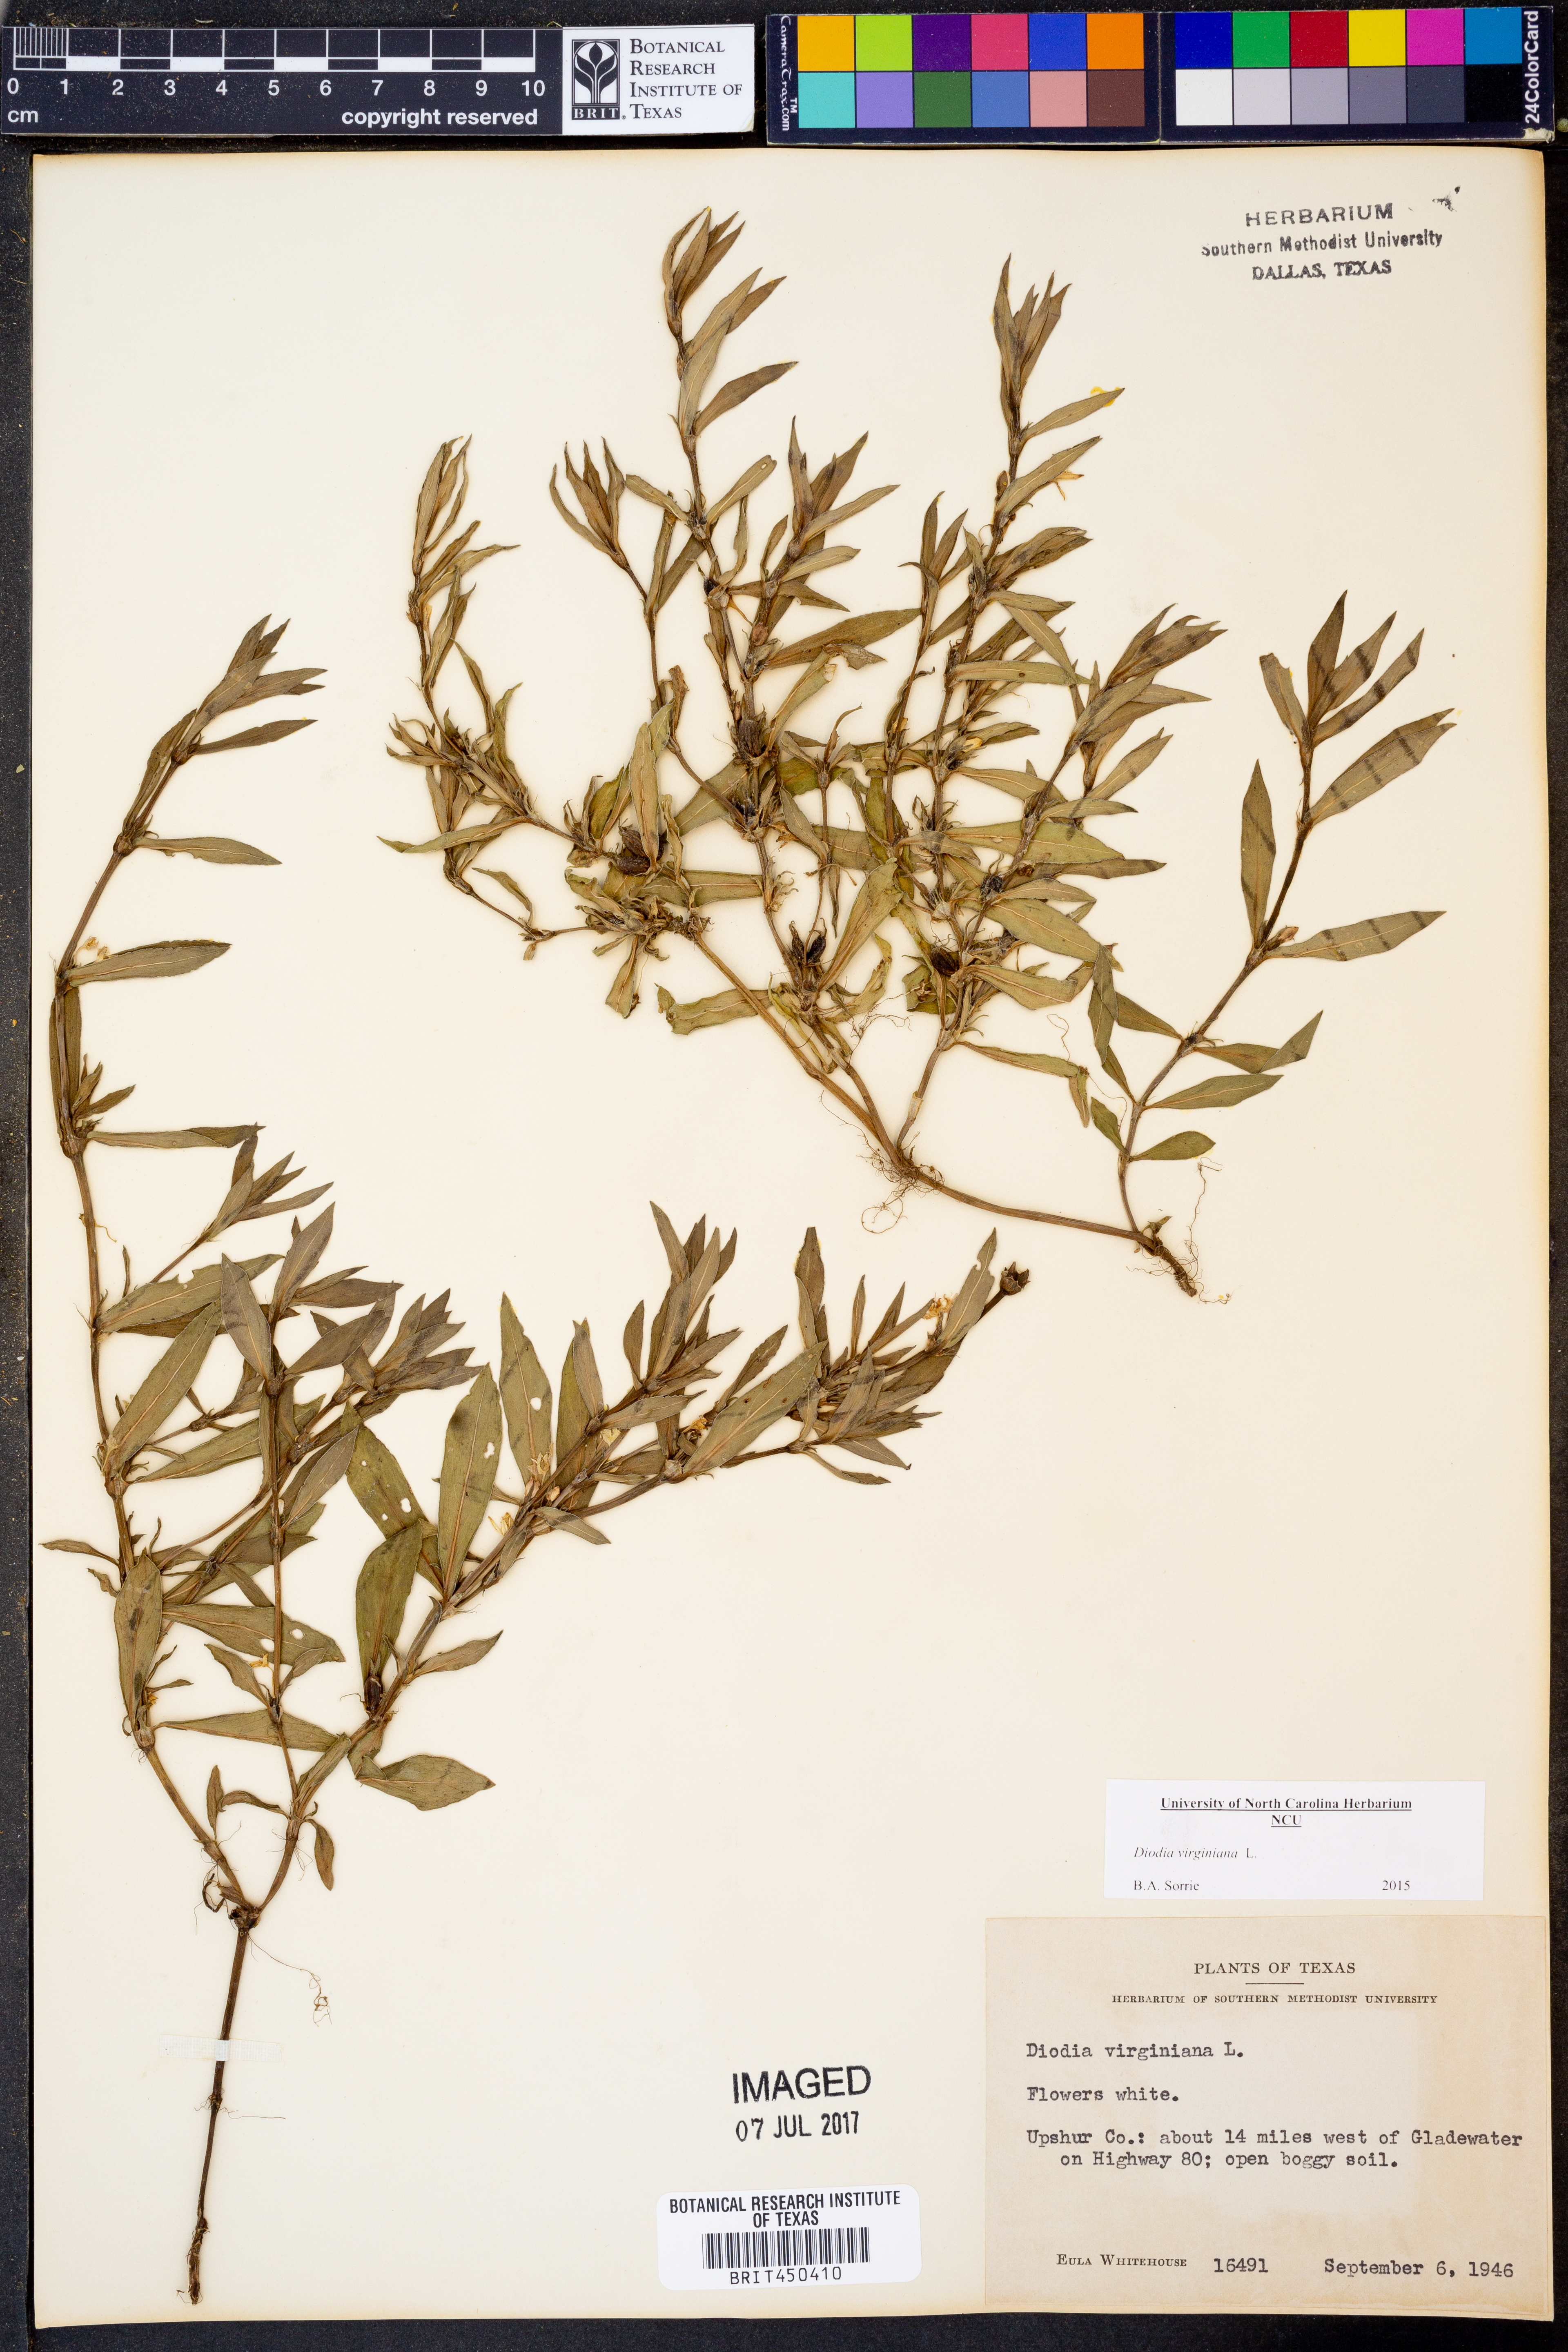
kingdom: Plantae
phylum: Tracheophyta
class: Magnoliopsida
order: Gentianales
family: Rubiaceae
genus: Diodia
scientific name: Diodia virginiana
